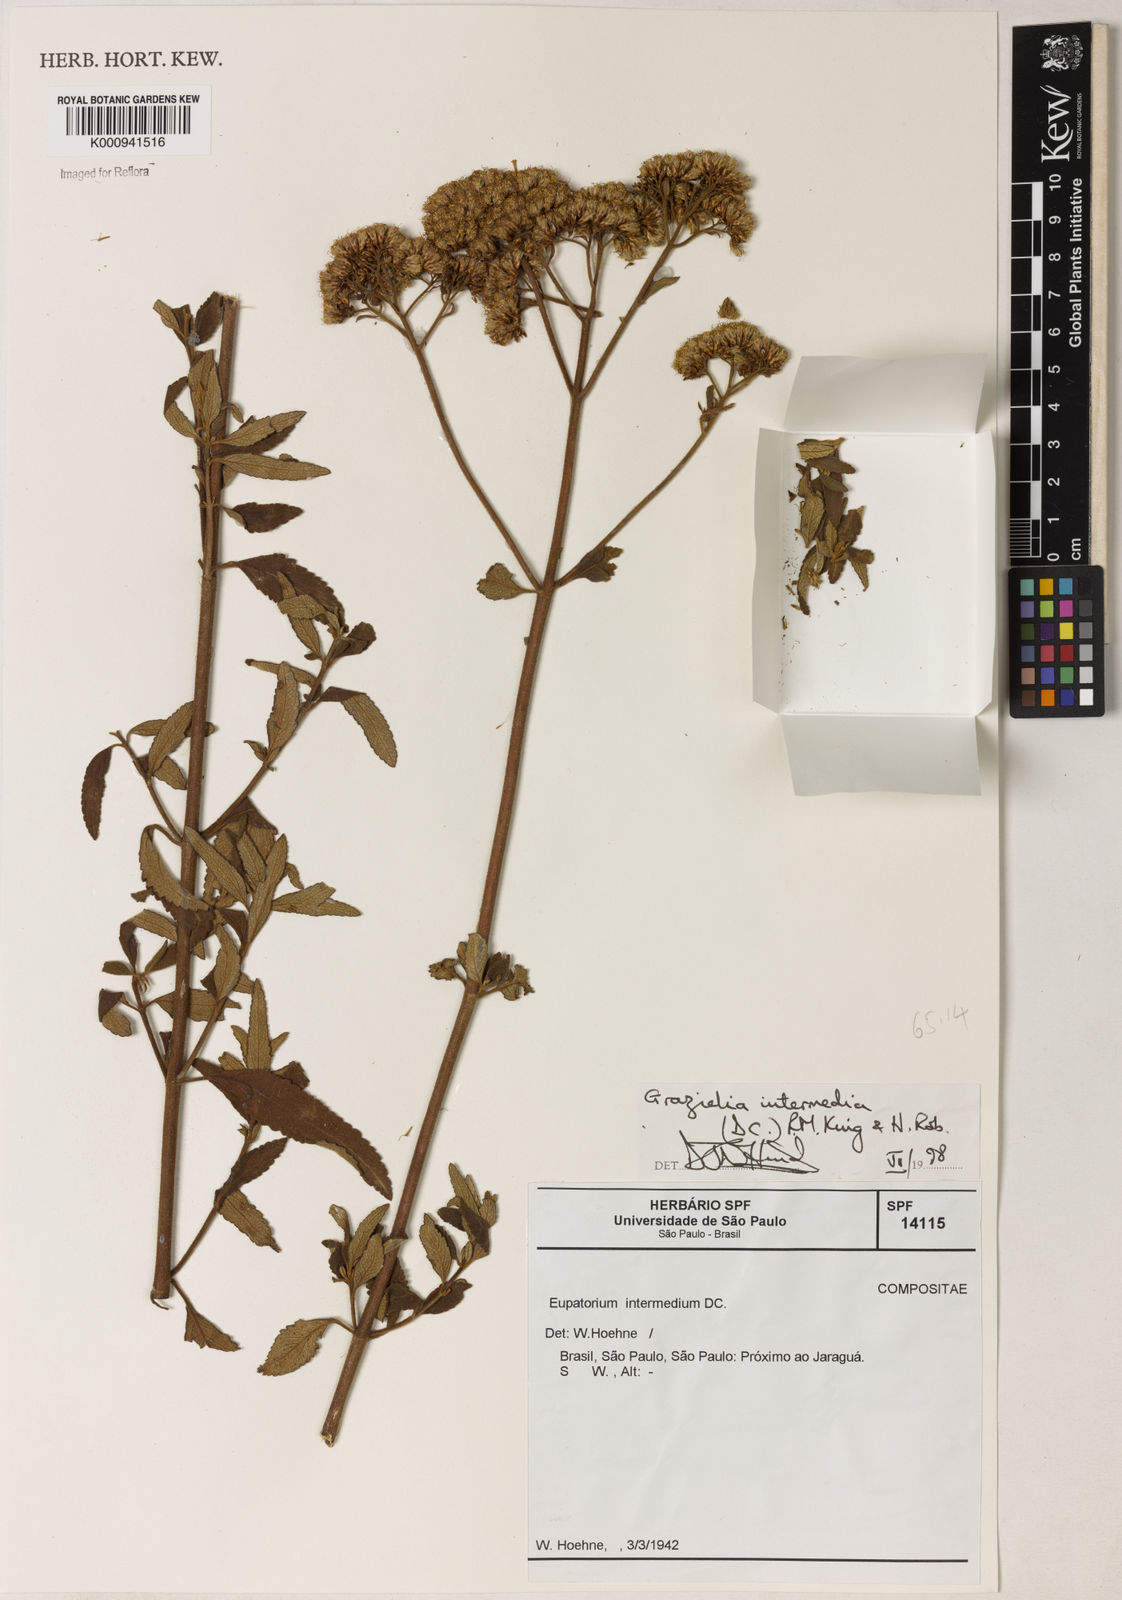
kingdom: Plantae
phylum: Tracheophyta
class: Magnoliopsida
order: Asterales
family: Asteraceae
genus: Grazielia
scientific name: Grazielia intermedia
